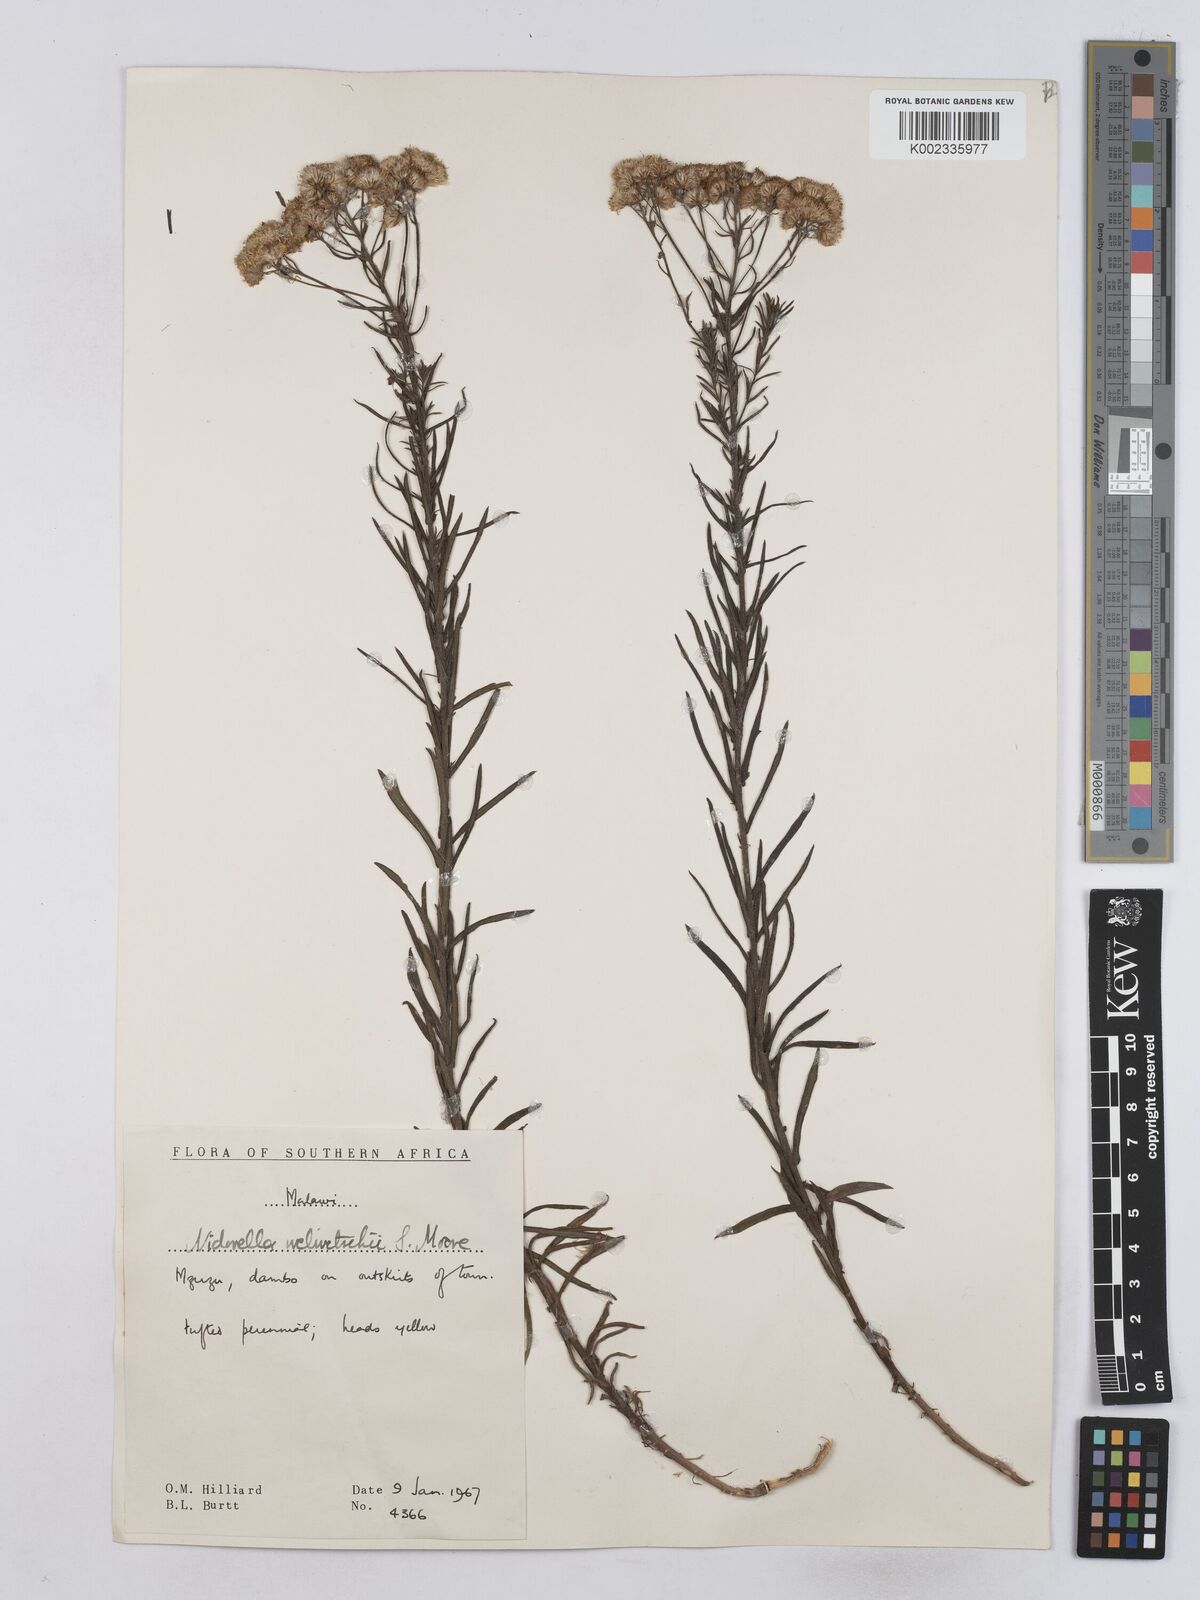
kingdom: Plantae
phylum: Tracheophyta
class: Magnoliopsida
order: Asterales
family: Asteraceae
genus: Nidorella
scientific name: Nidorella welwitschii
